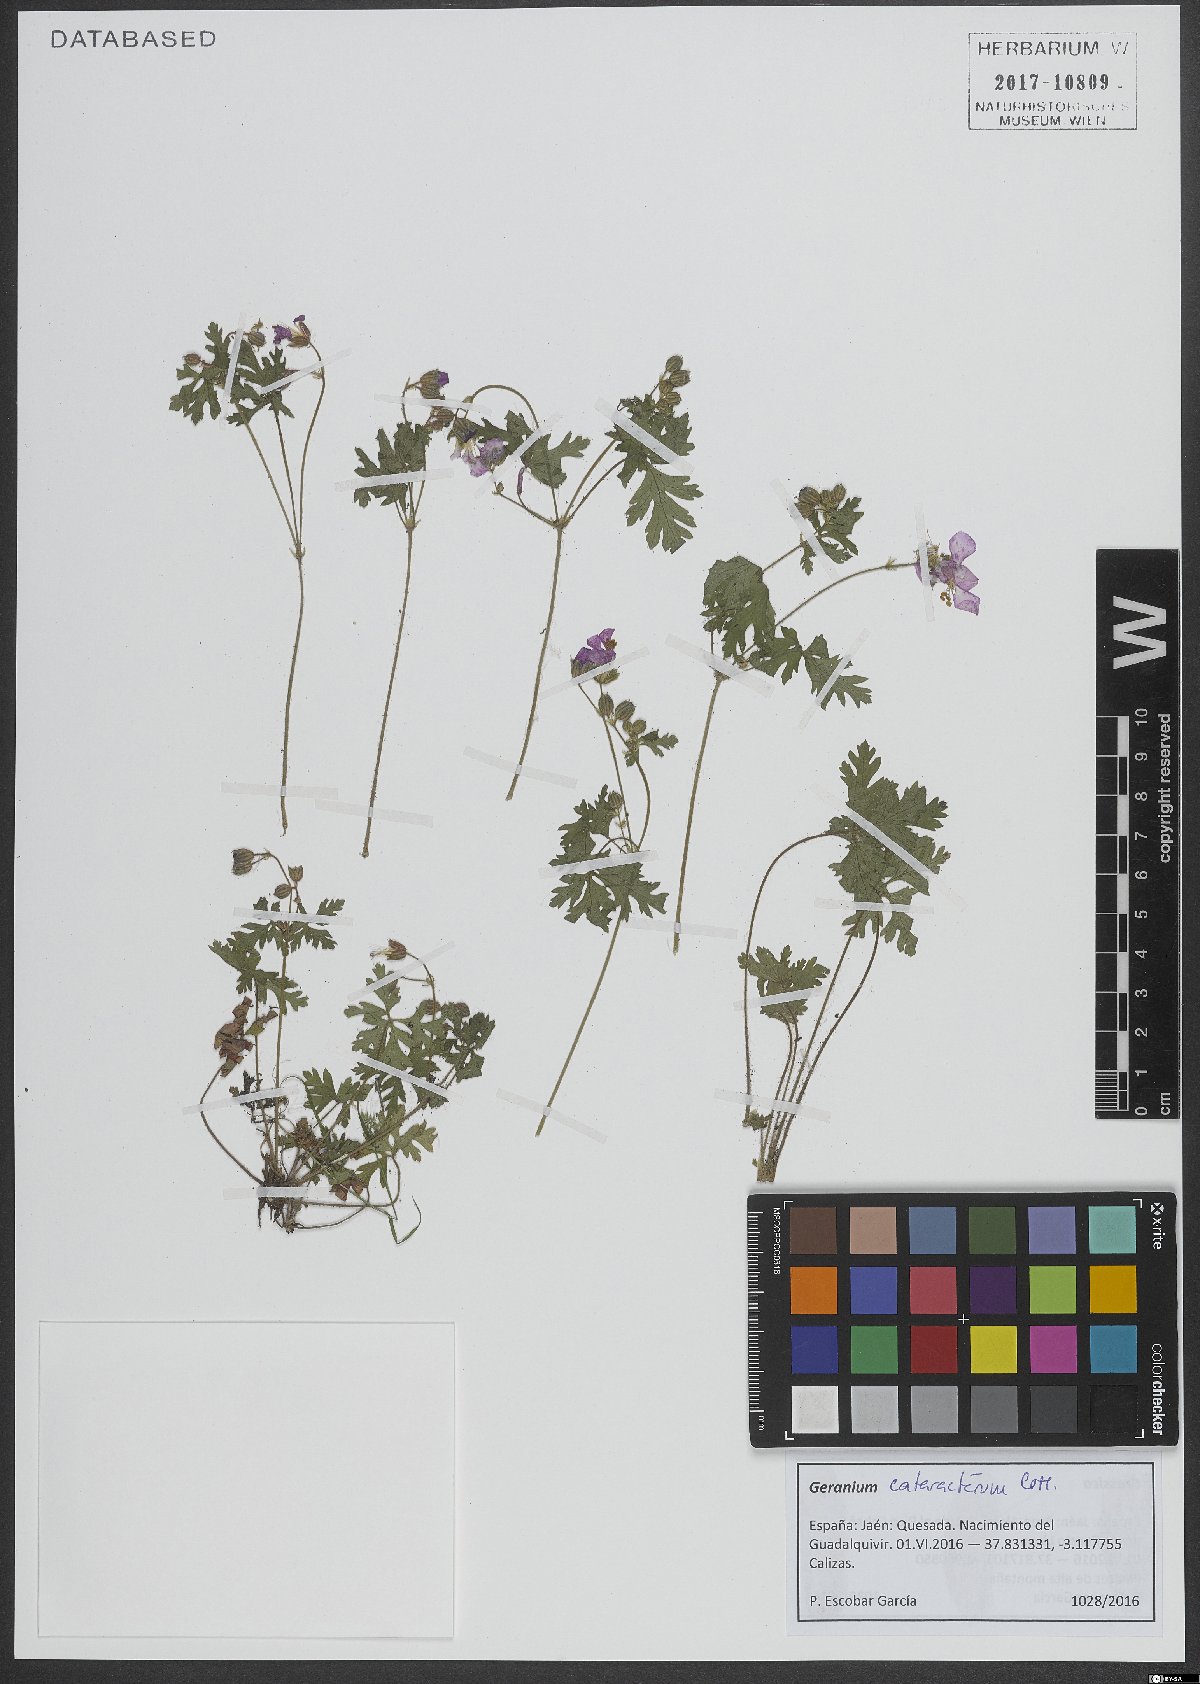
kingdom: Plantae
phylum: Tracheophyta
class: Magnoliopsida
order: Geraniales
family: Geraniaceae
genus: Geranium
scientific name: Geranium cataractarum
